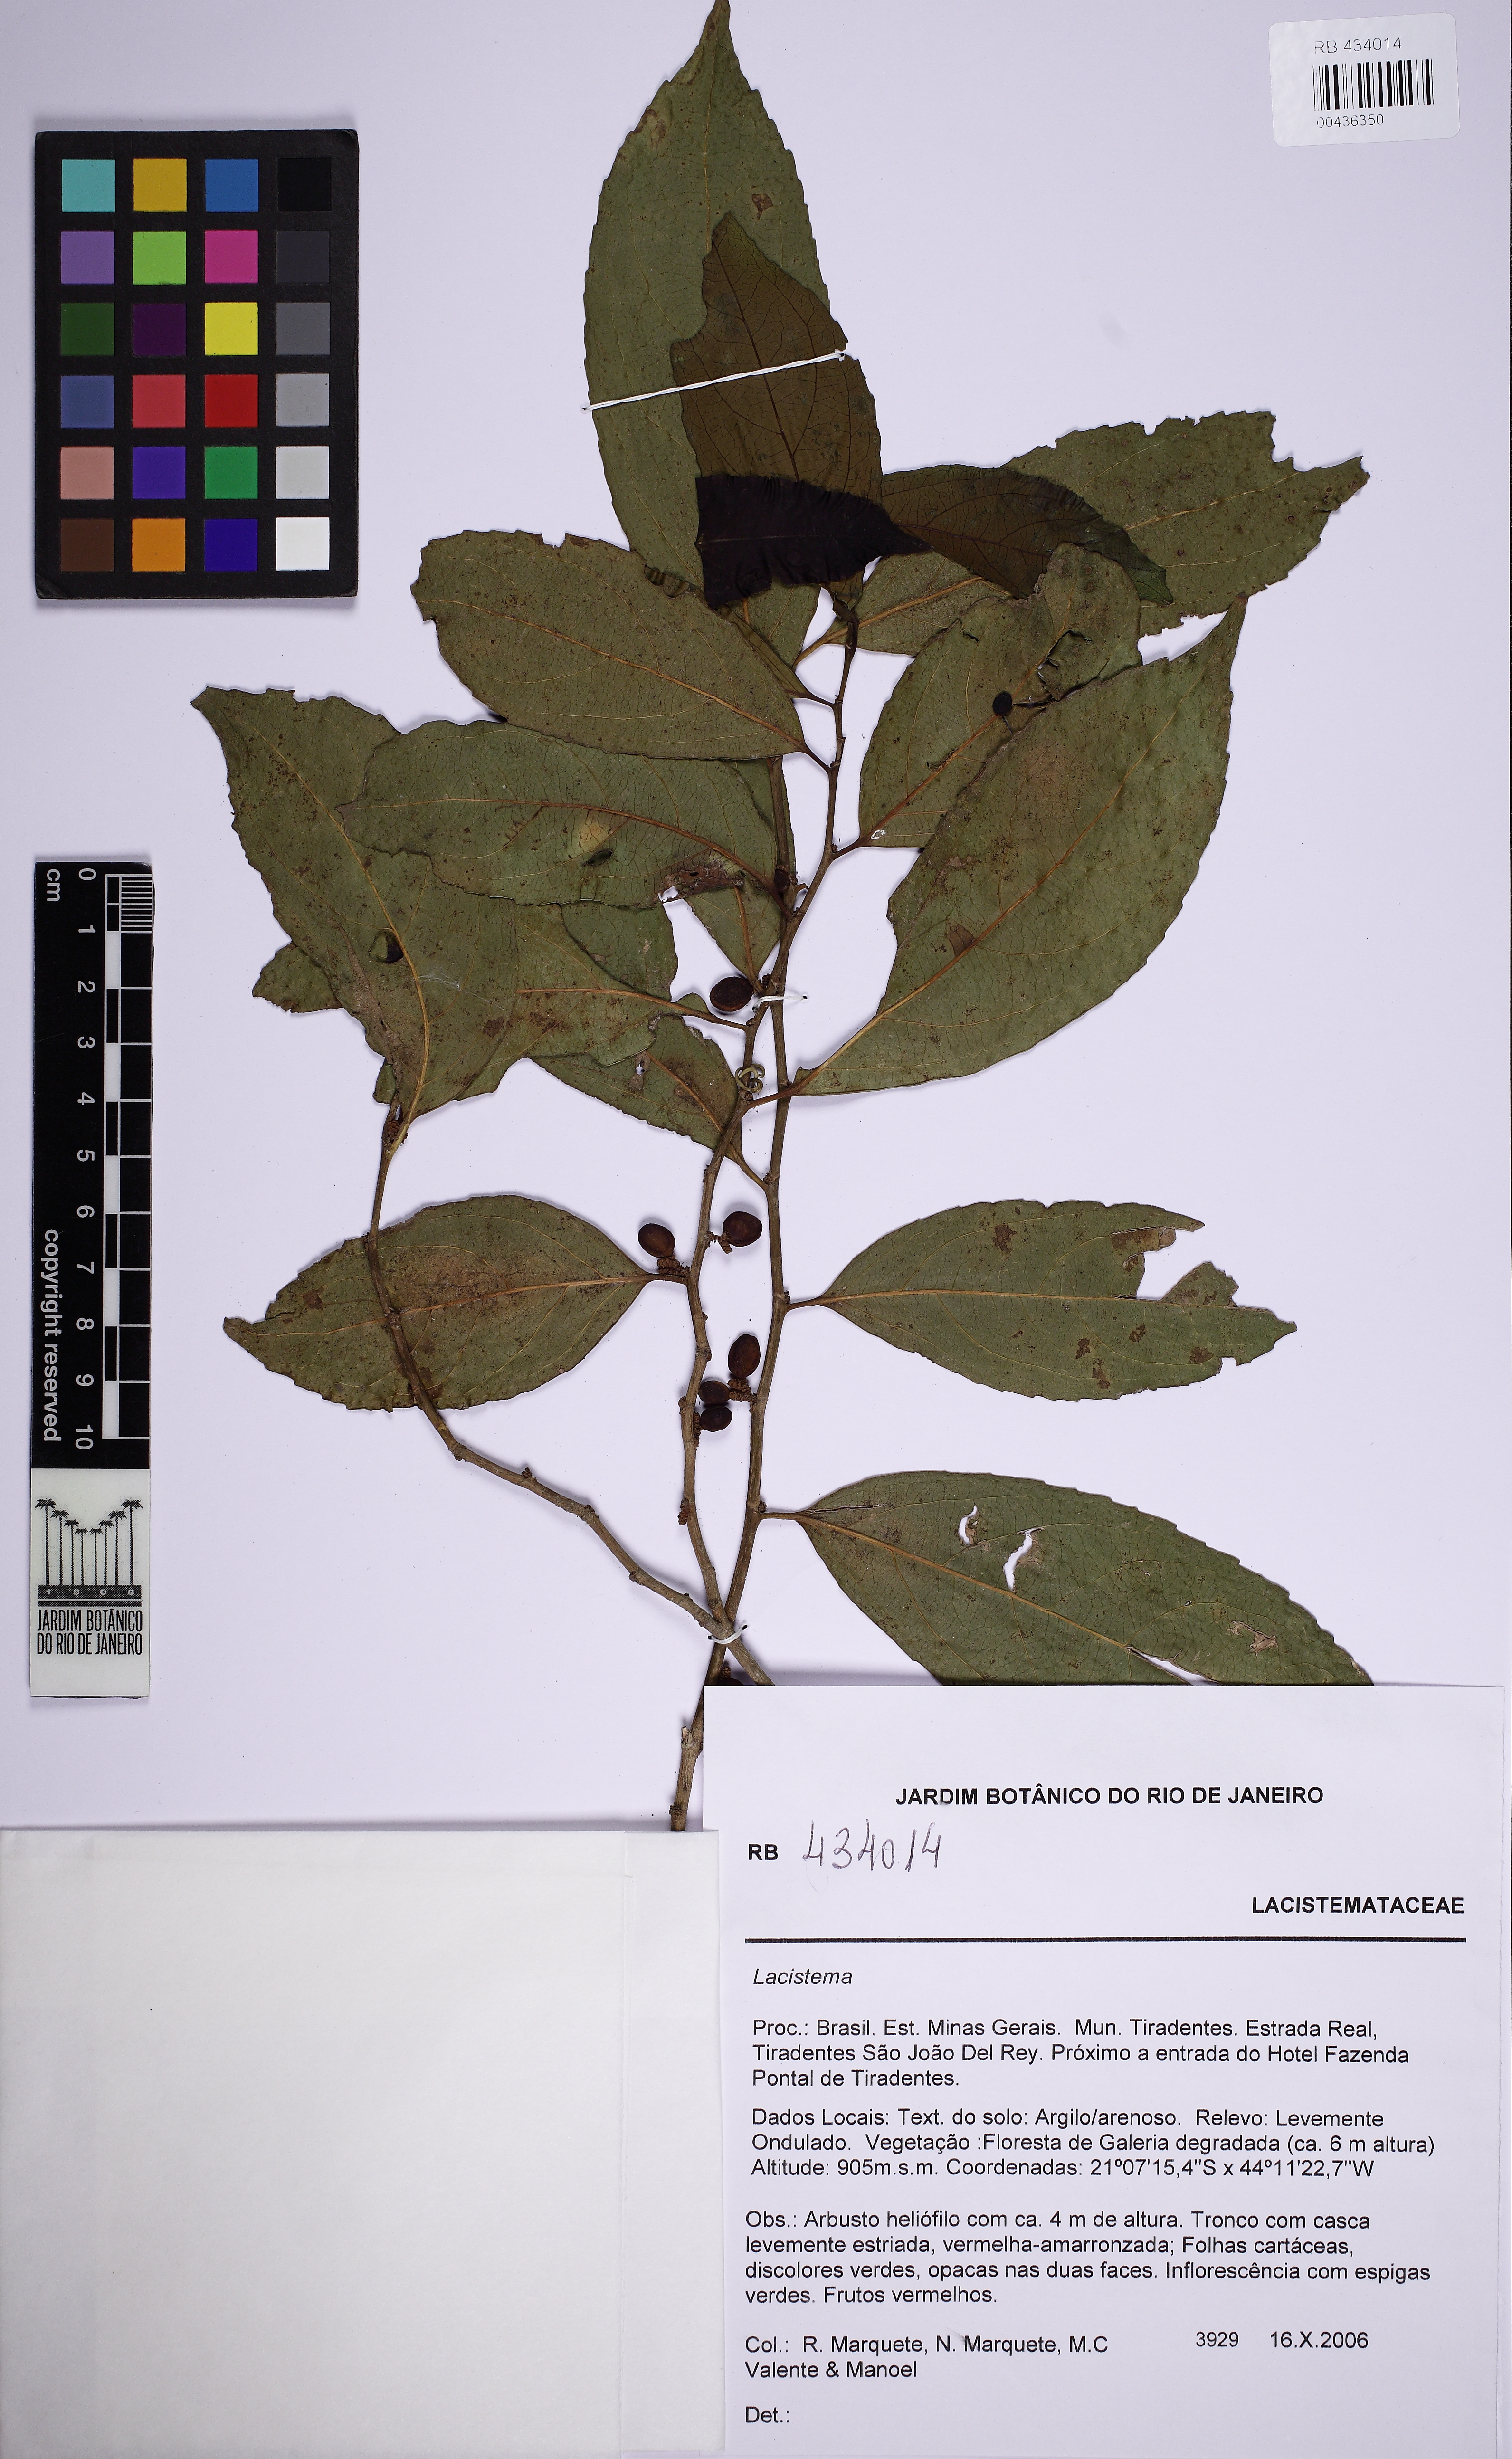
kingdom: Plantae
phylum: Tracheophyta
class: Magnoliopsida
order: Malpighiales
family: Lacistemataceae
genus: Lacistema
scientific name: Lacistema
